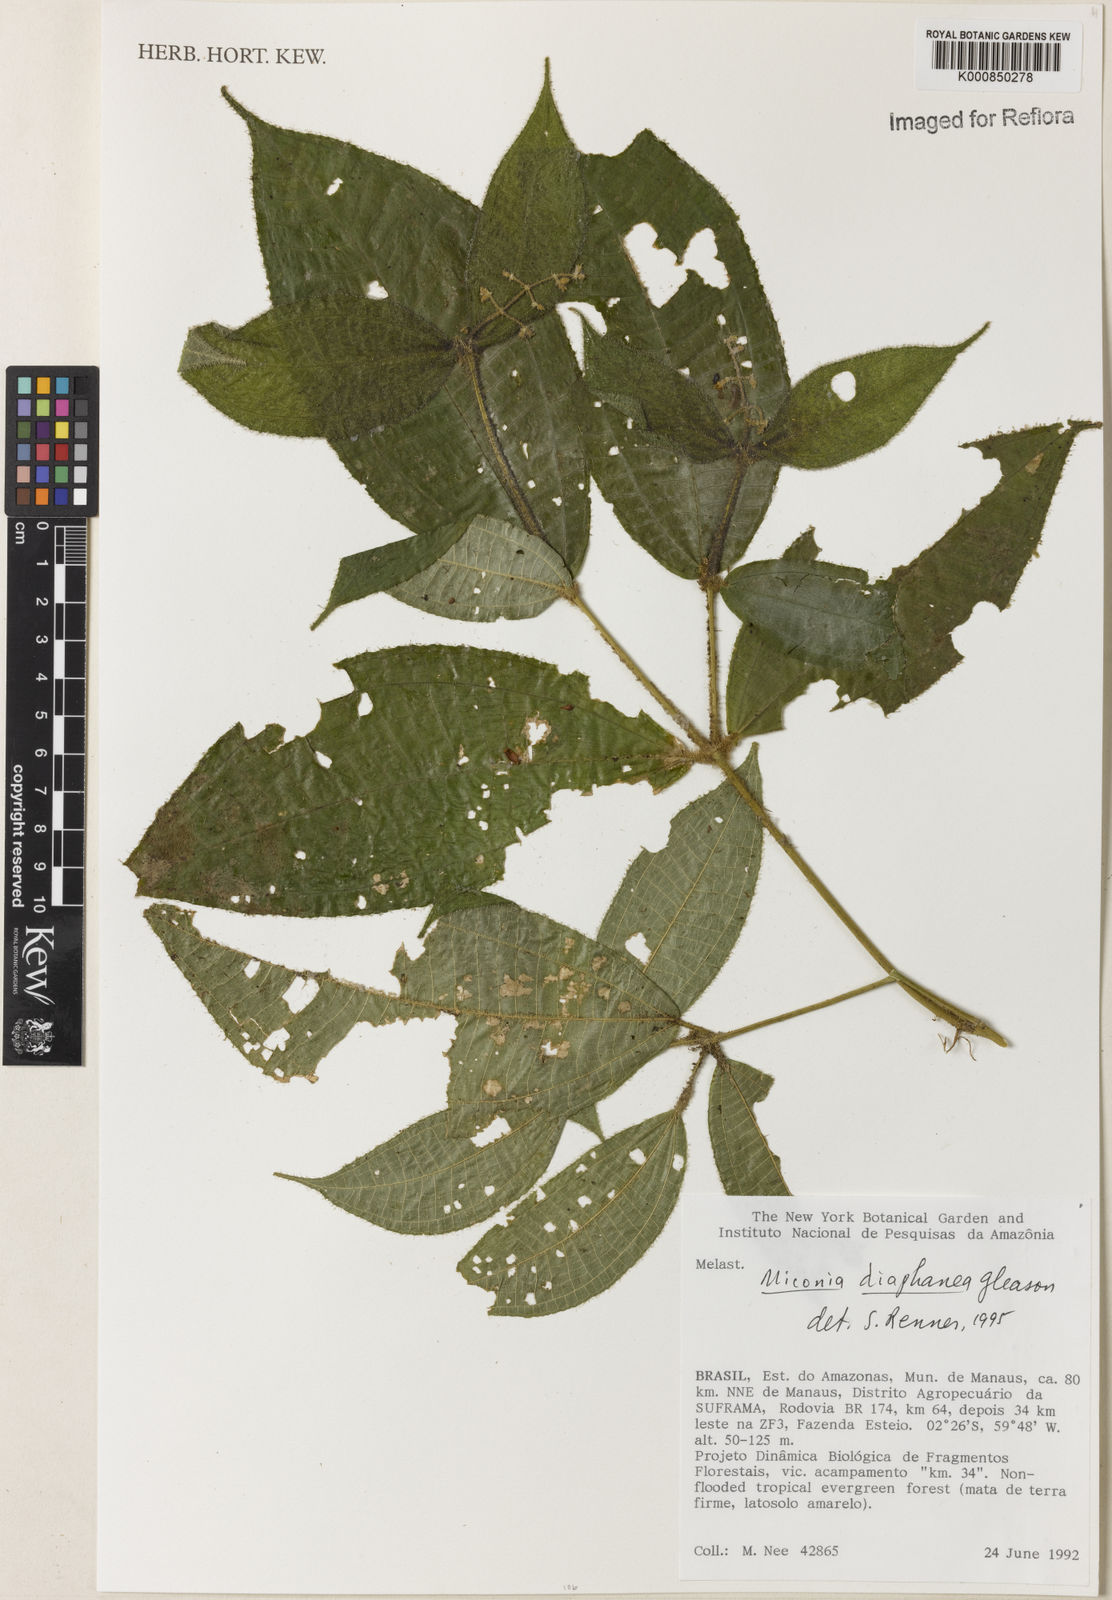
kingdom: Plantae
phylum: Tracheophyta
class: Magnoliopsida
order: Myrtales
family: Melastomataceae
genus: Miconia
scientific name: Miconia diaphanea
